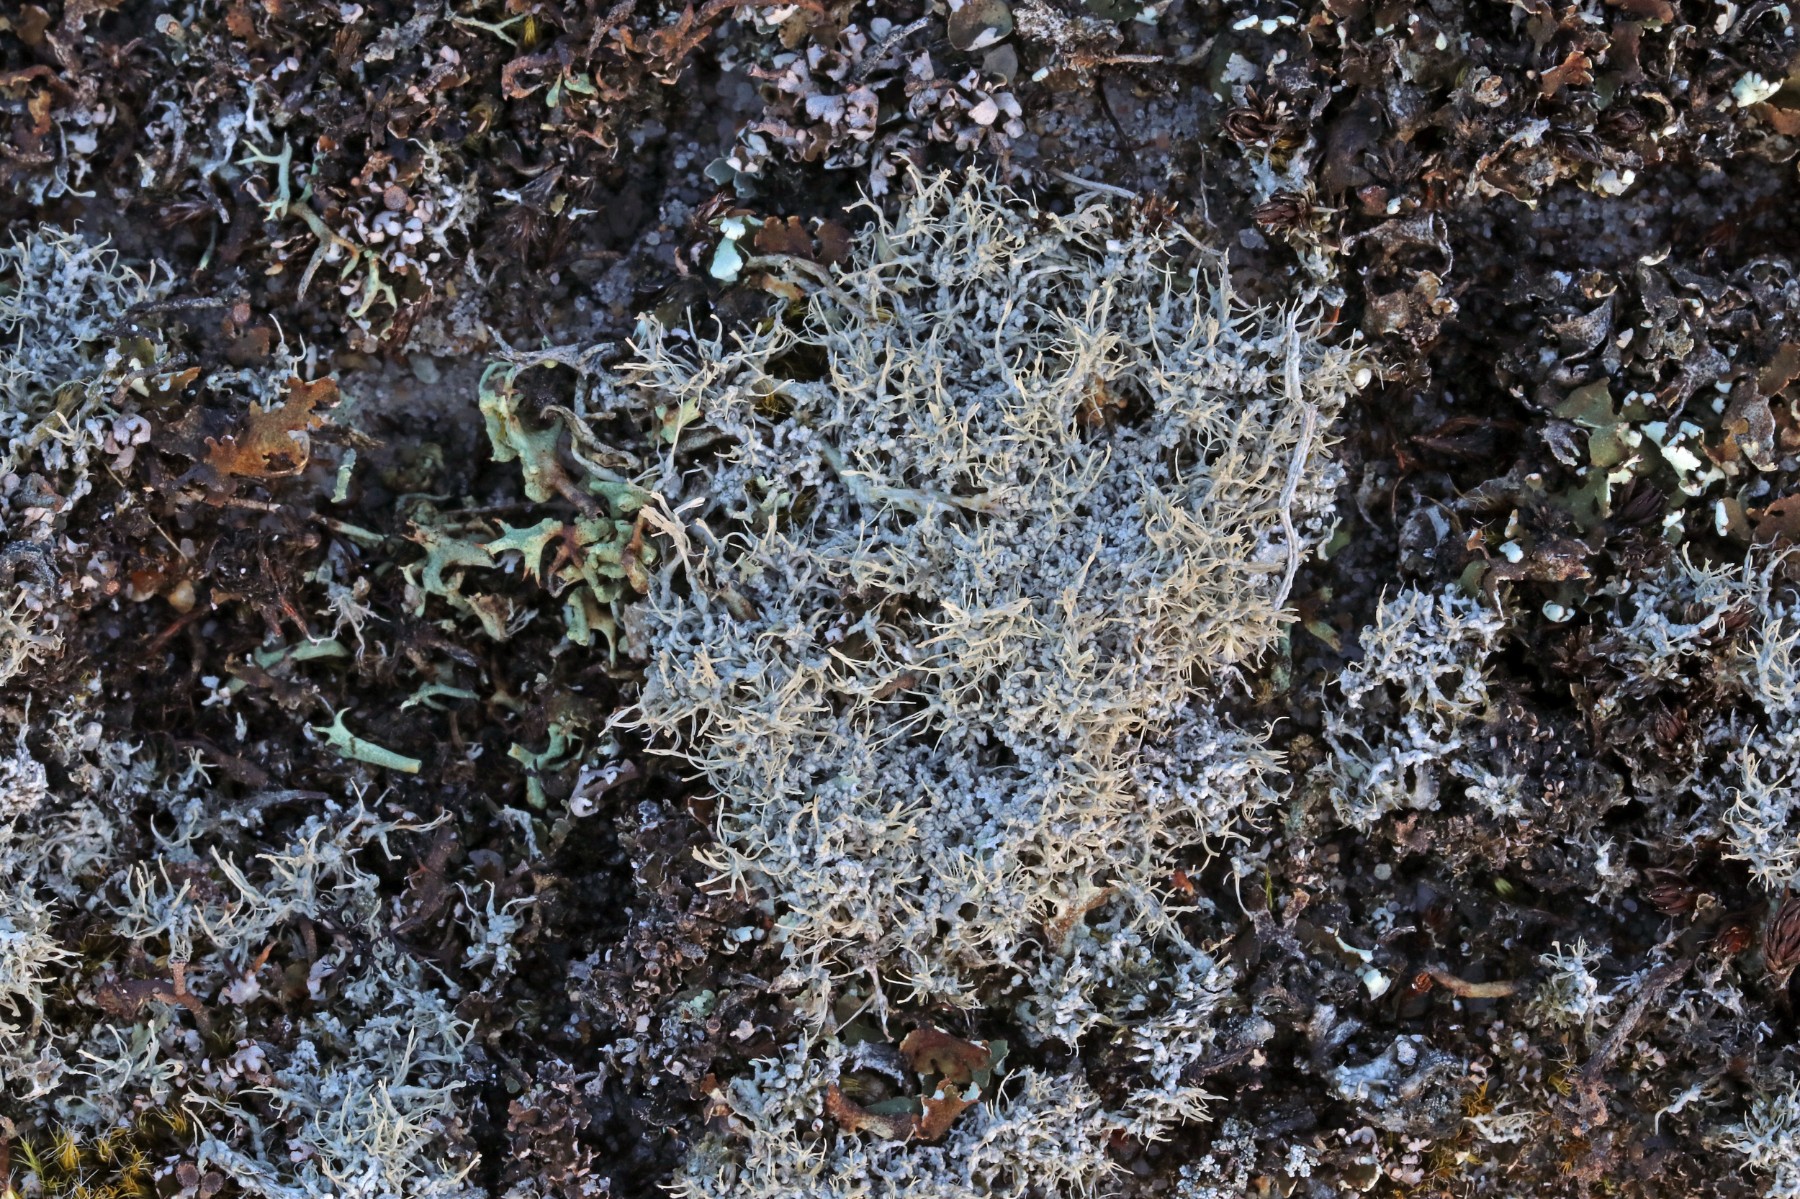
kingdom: Fungi
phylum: Ascomycota
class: Lecanoromycetes
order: Pertusariales
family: Ochrolechiaceae
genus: Ochrolechia
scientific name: Ochrolechia frigida
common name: fjeld-blegskivelav
